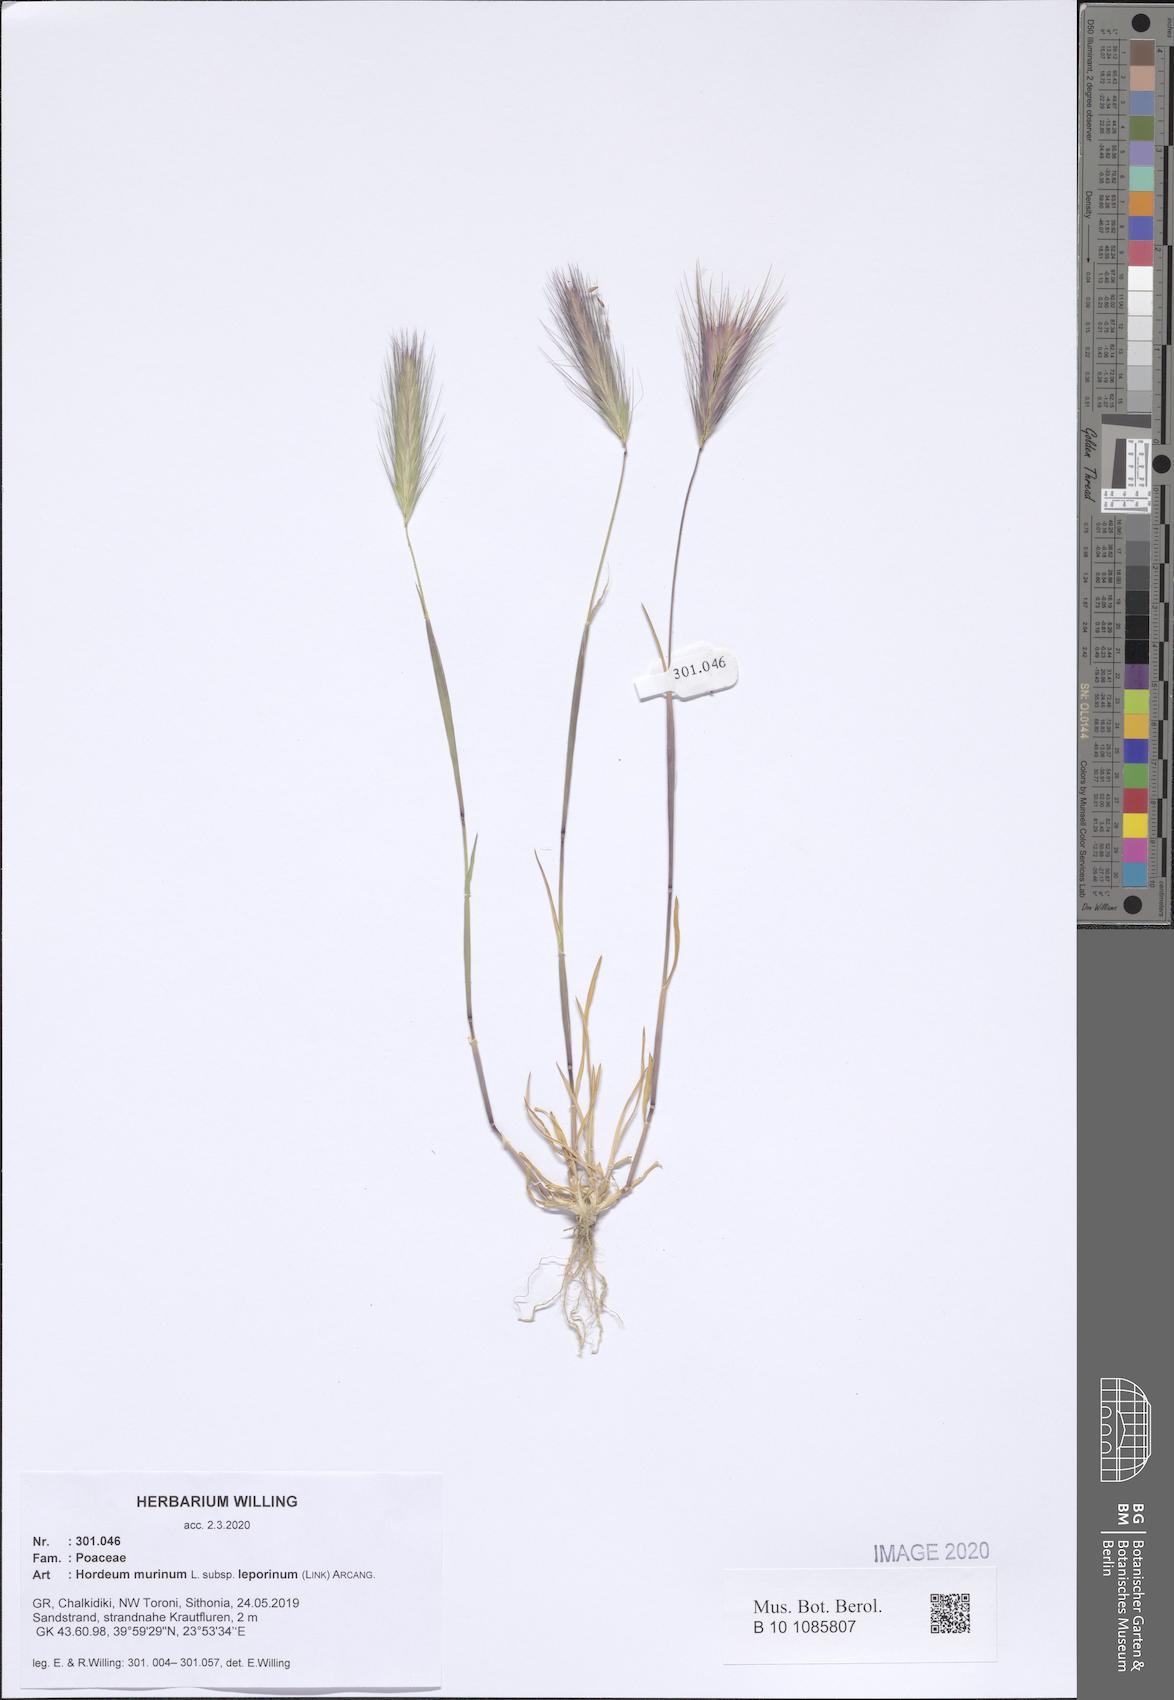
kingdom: Plantae
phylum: Tracheophyta
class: Liliopsida
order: Poales
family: Poaceae
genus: Hordeum
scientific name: Hordeum murinum
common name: Wall barley
